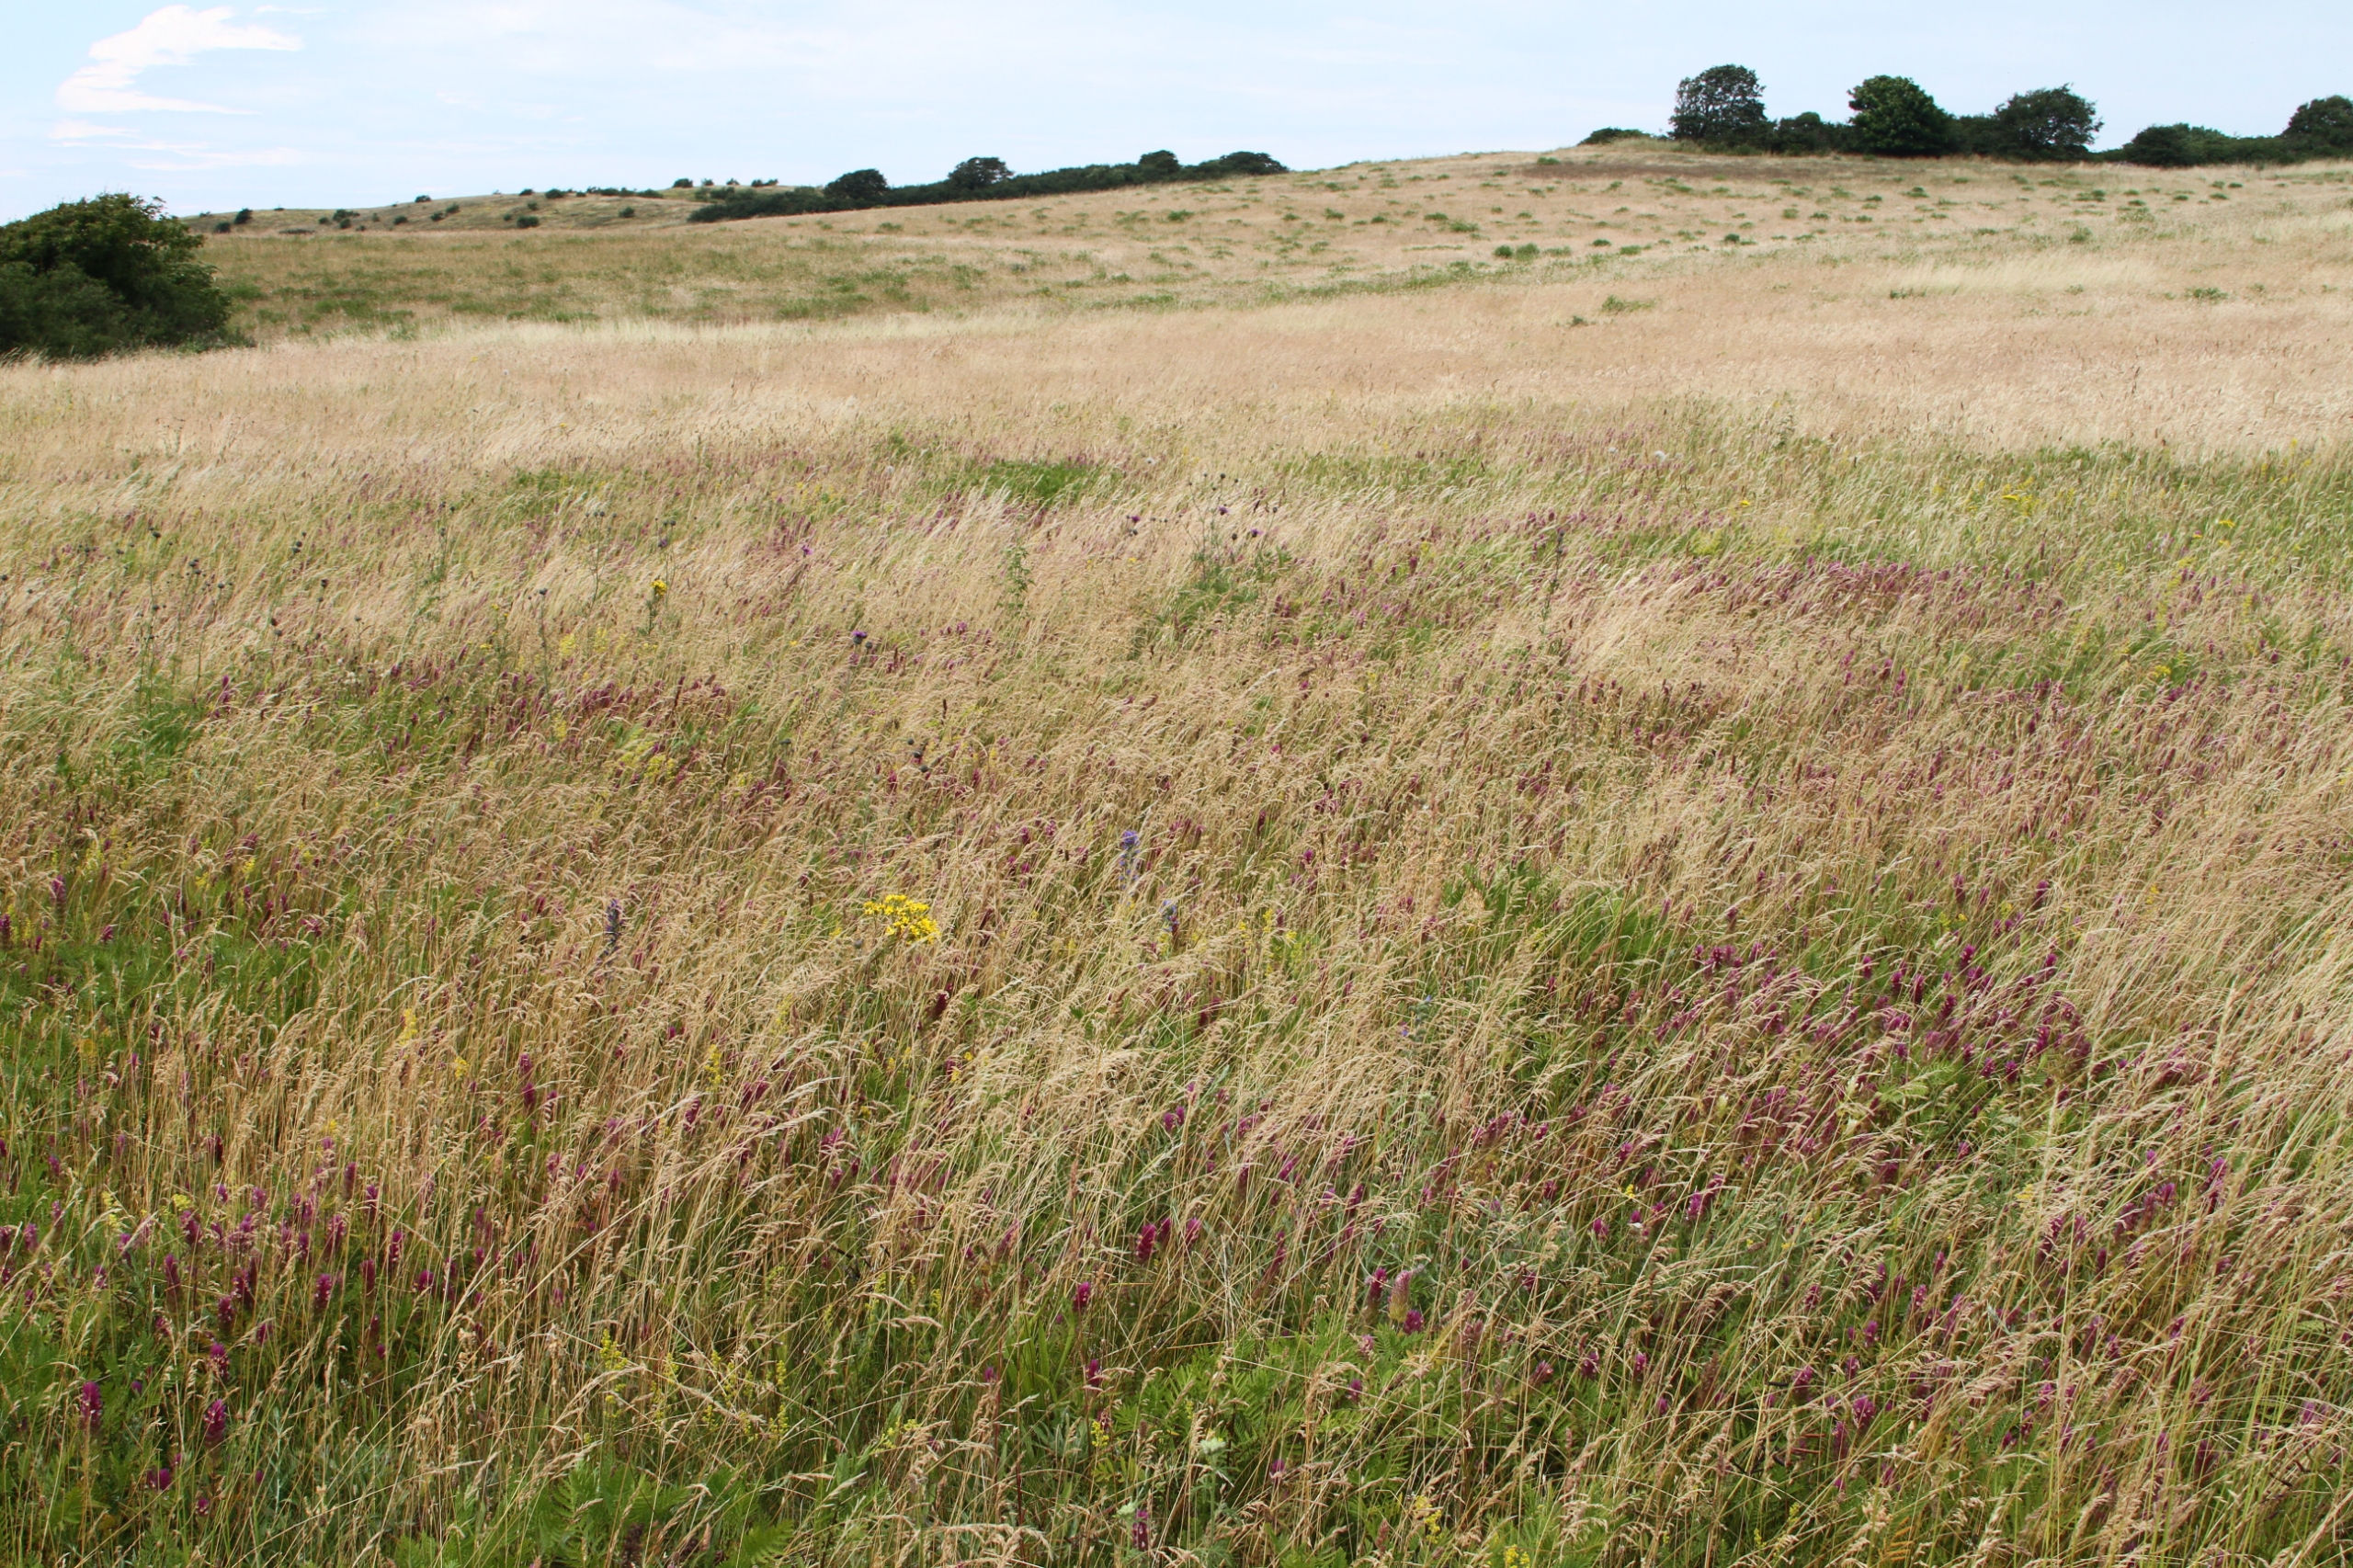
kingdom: Plantae
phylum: Tracheophyta
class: Magnoliopsida
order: Lamiales
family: Orobanchaceae
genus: Melampyrum
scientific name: Melampyrum arvense
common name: Ager-kohvede
